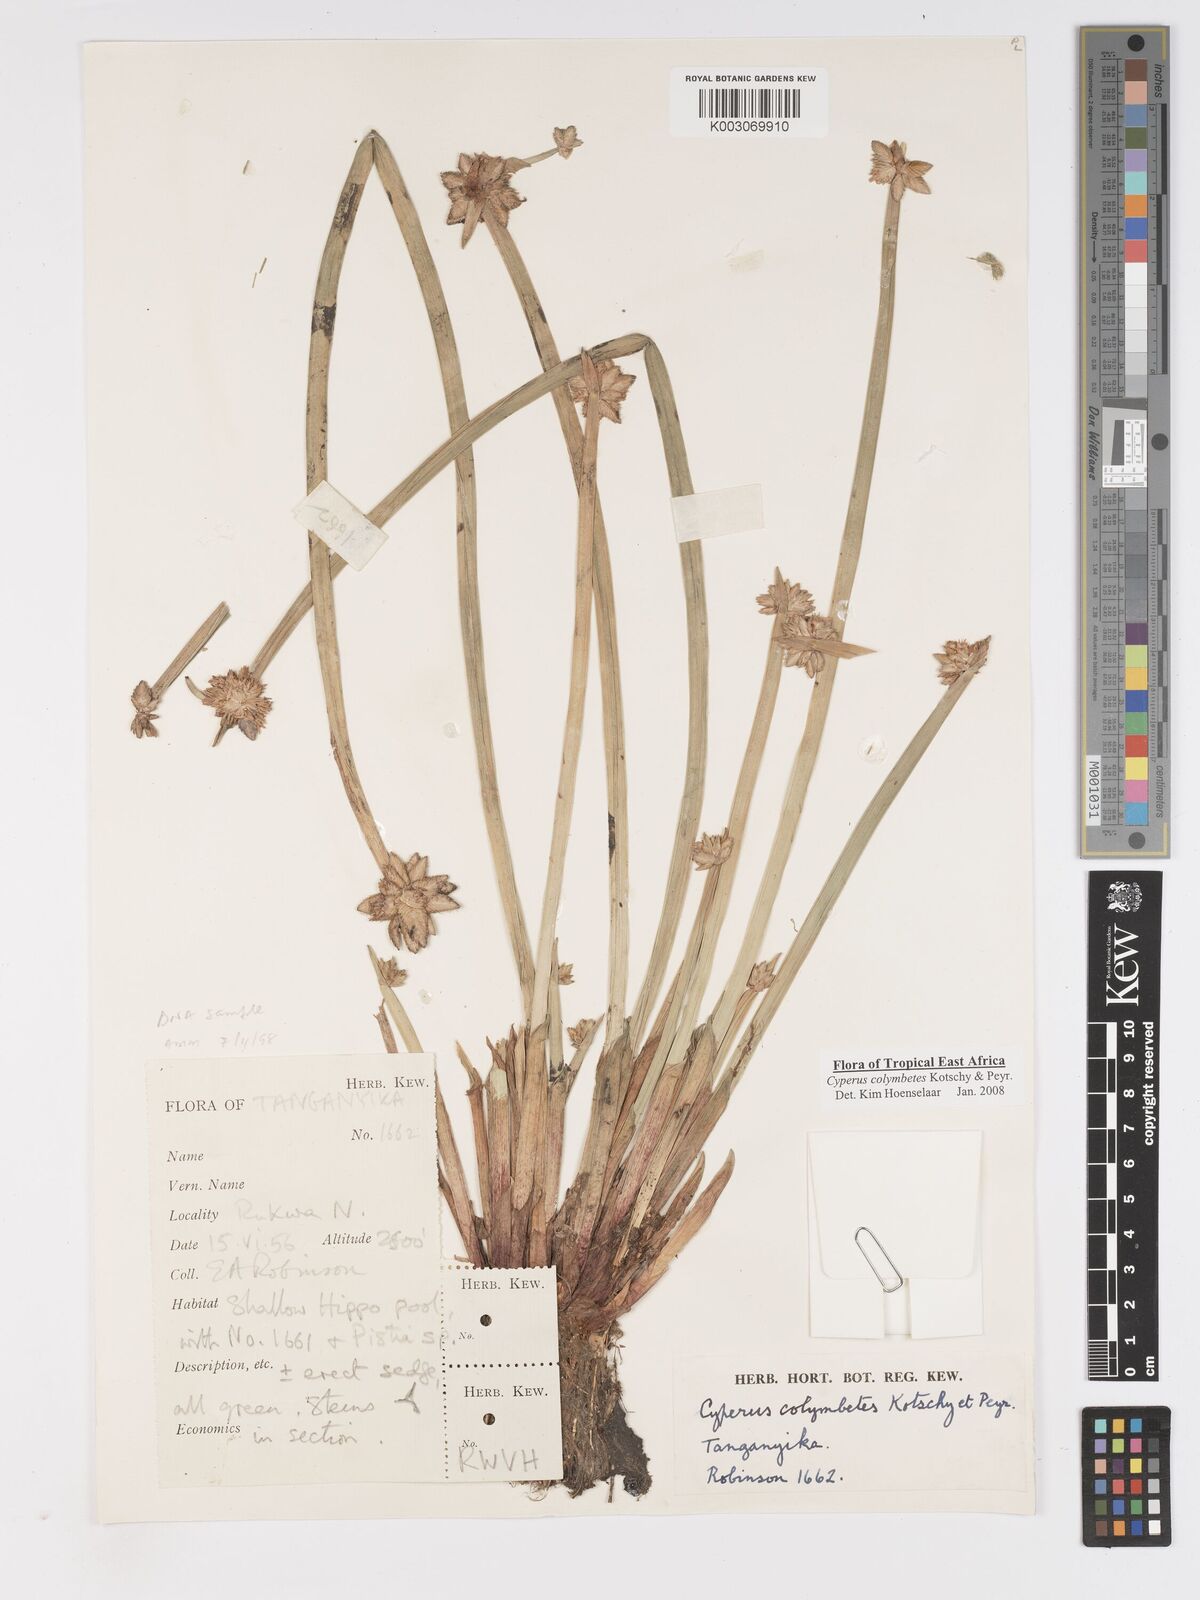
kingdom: Plantae
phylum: Tracheophyta
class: Liliopsida
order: Poales
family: Cyperaceae
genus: Cyperus
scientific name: Cyperus colymbetes
